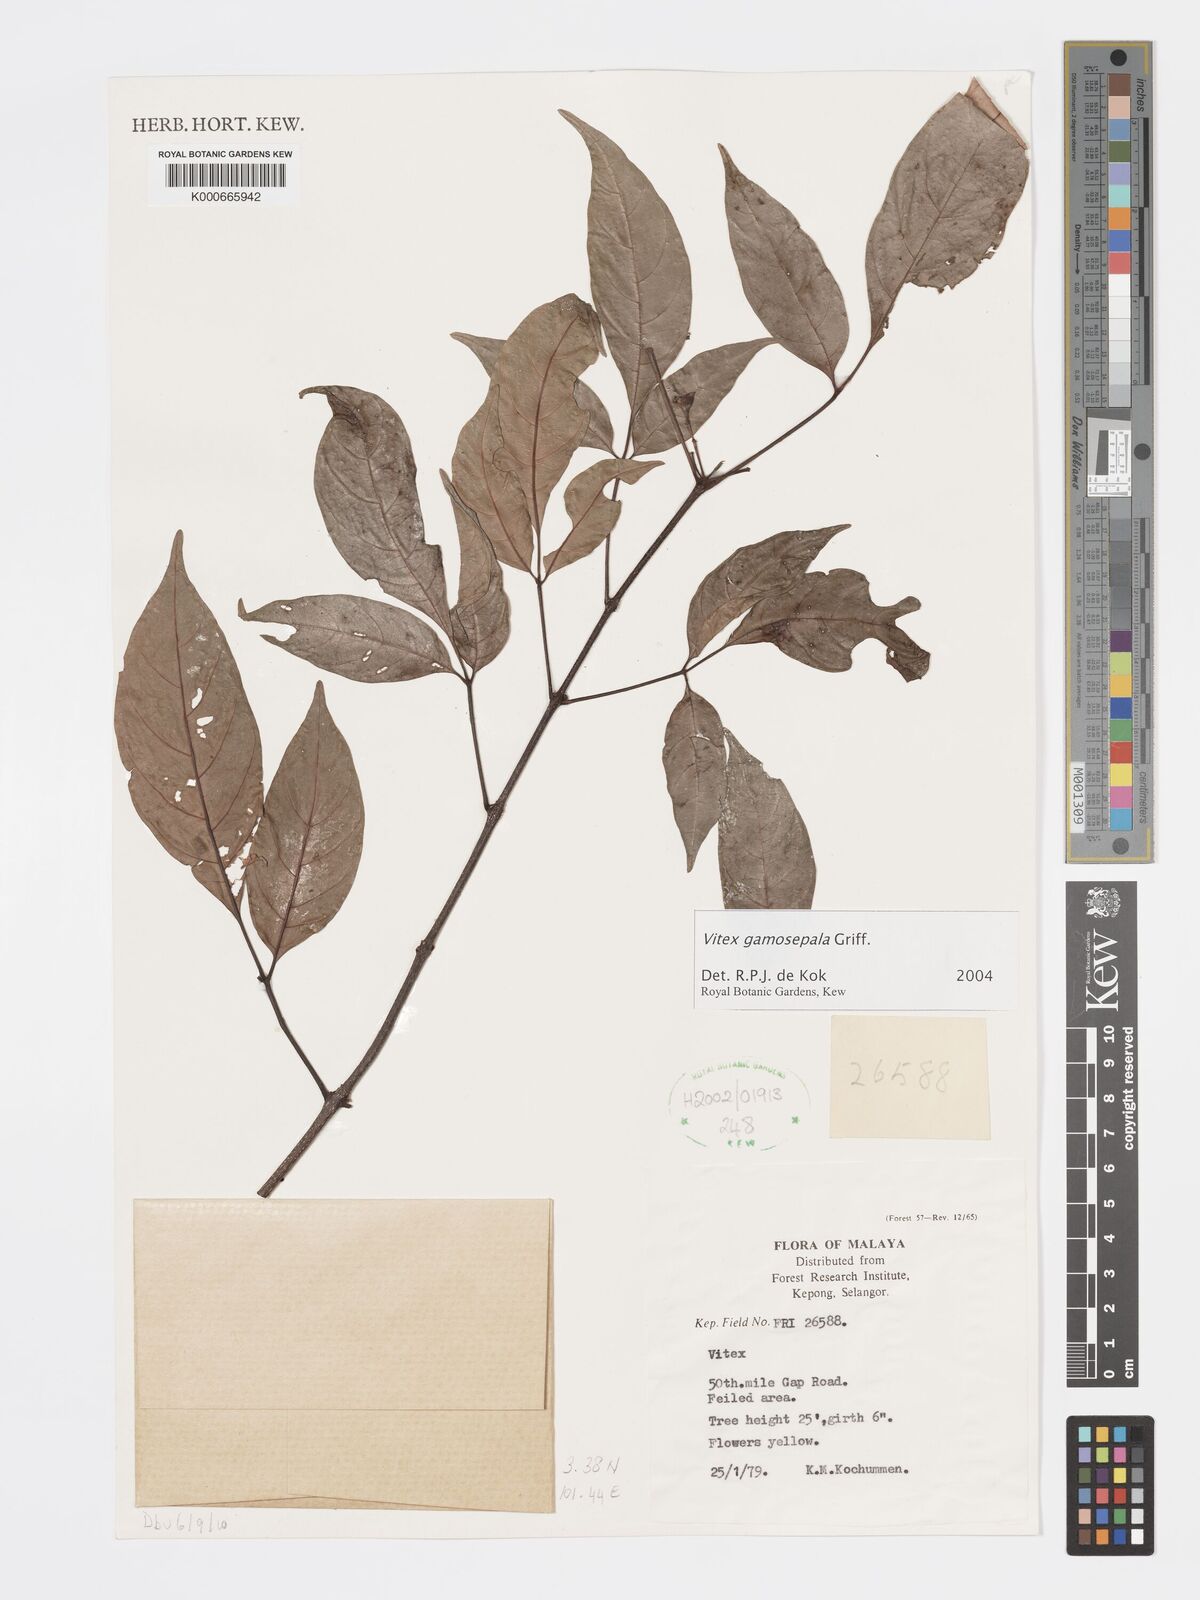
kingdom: Plantae
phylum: Tracheophyta
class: Magnoliopsida
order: Lamiales
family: Lamiaceae
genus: Vitex
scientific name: Vitex gamosepala
